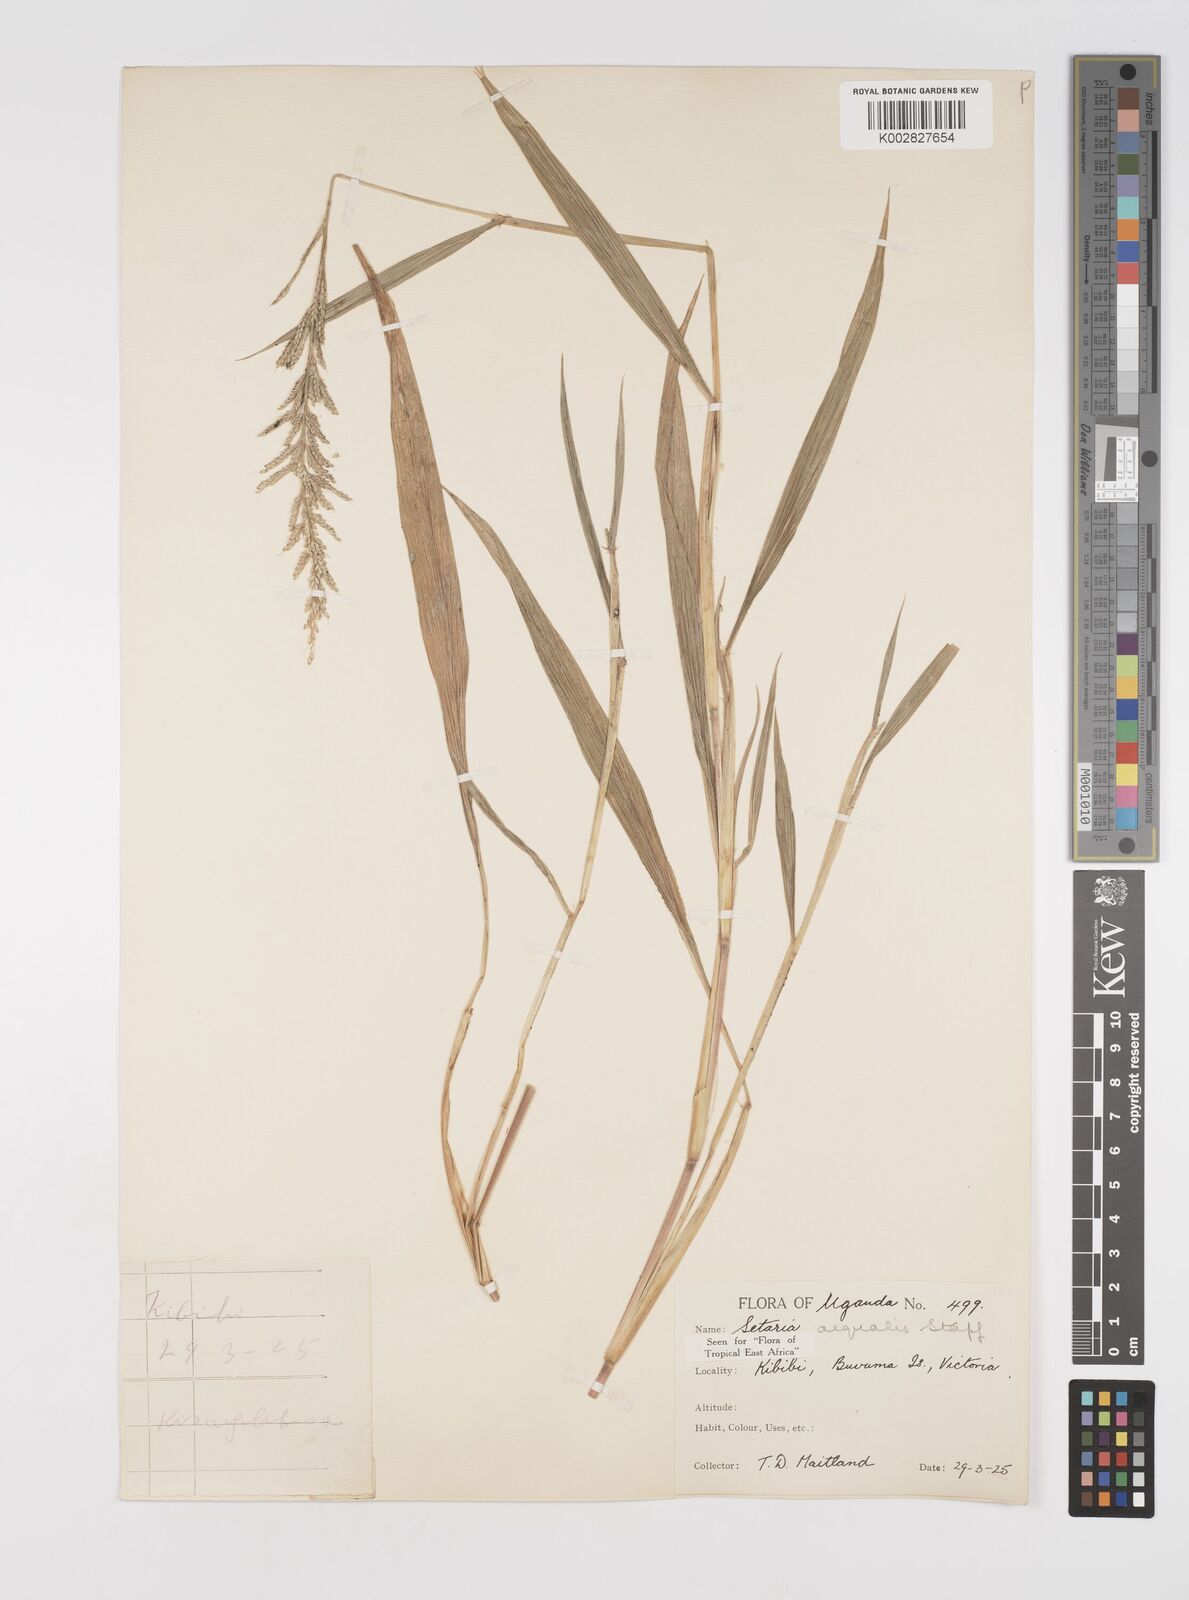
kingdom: Plantae
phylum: Tracheophyta
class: Liliopsida
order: Poales
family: Poaceae
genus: Setaria
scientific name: Setaria homonyma
